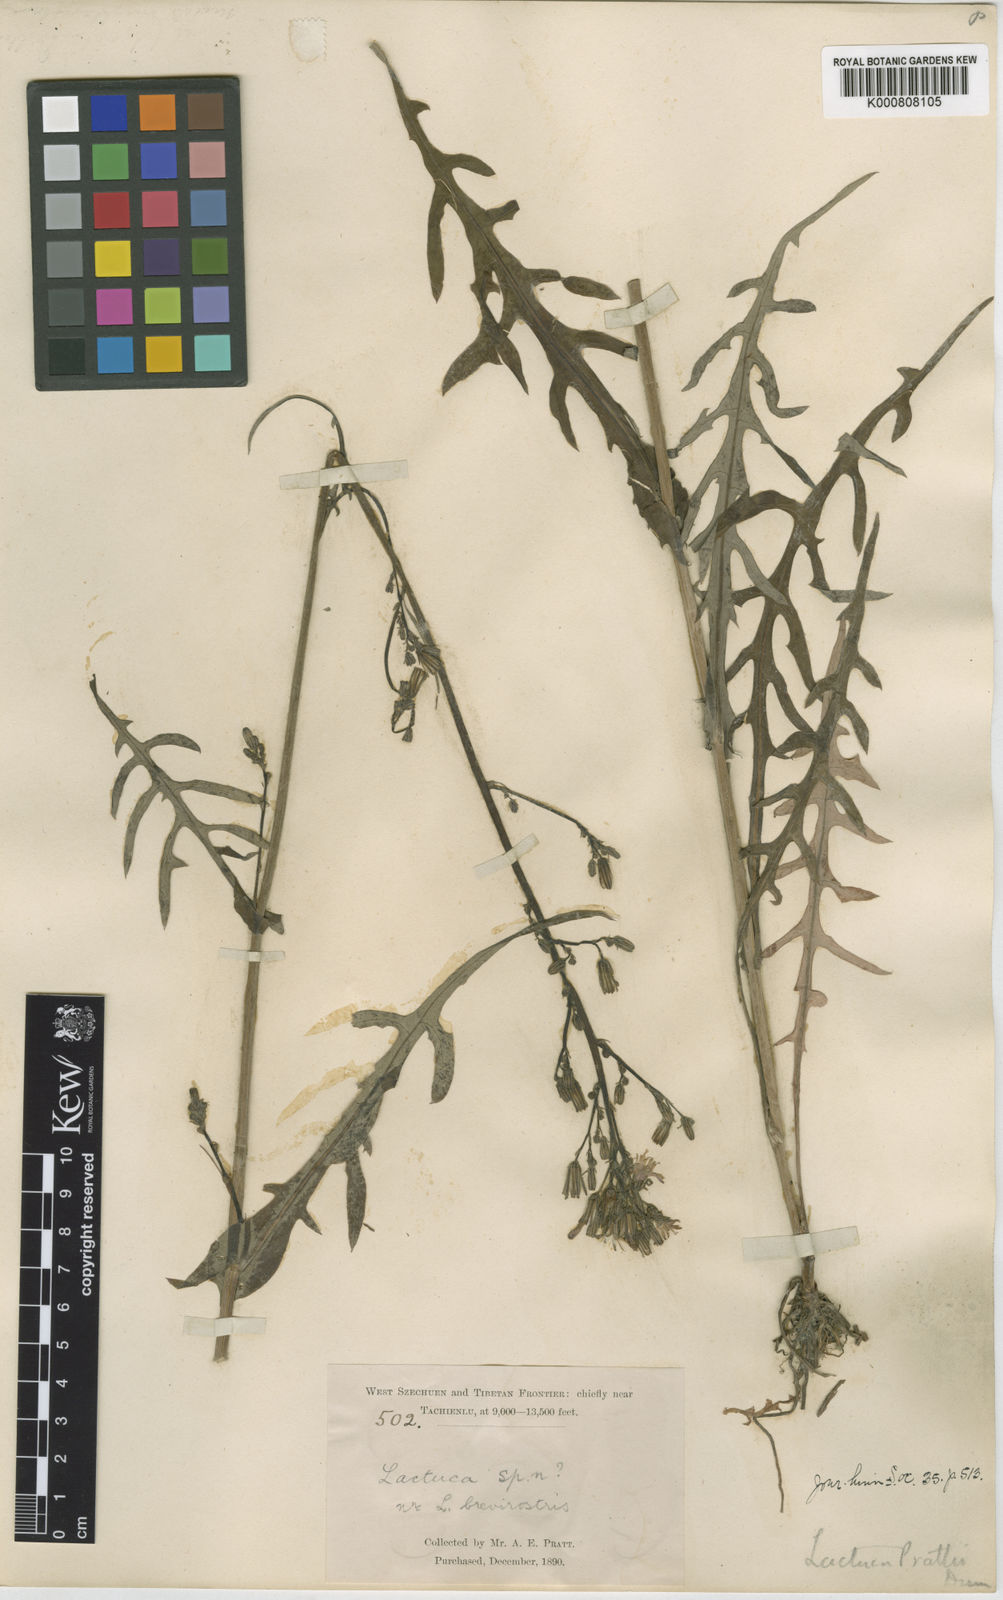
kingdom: Plantae
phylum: Tracheophyta
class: Magnoliopsida
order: Asterales
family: Asteraceae
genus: Cicerbita
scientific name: Cicerbita roborowskii
